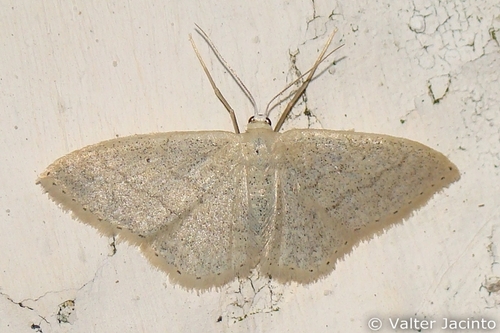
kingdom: Animalia
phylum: Arthropoda
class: Insecta
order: Lepidoptera
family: Geometridae
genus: Idaea
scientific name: Idaea lusohispanica
